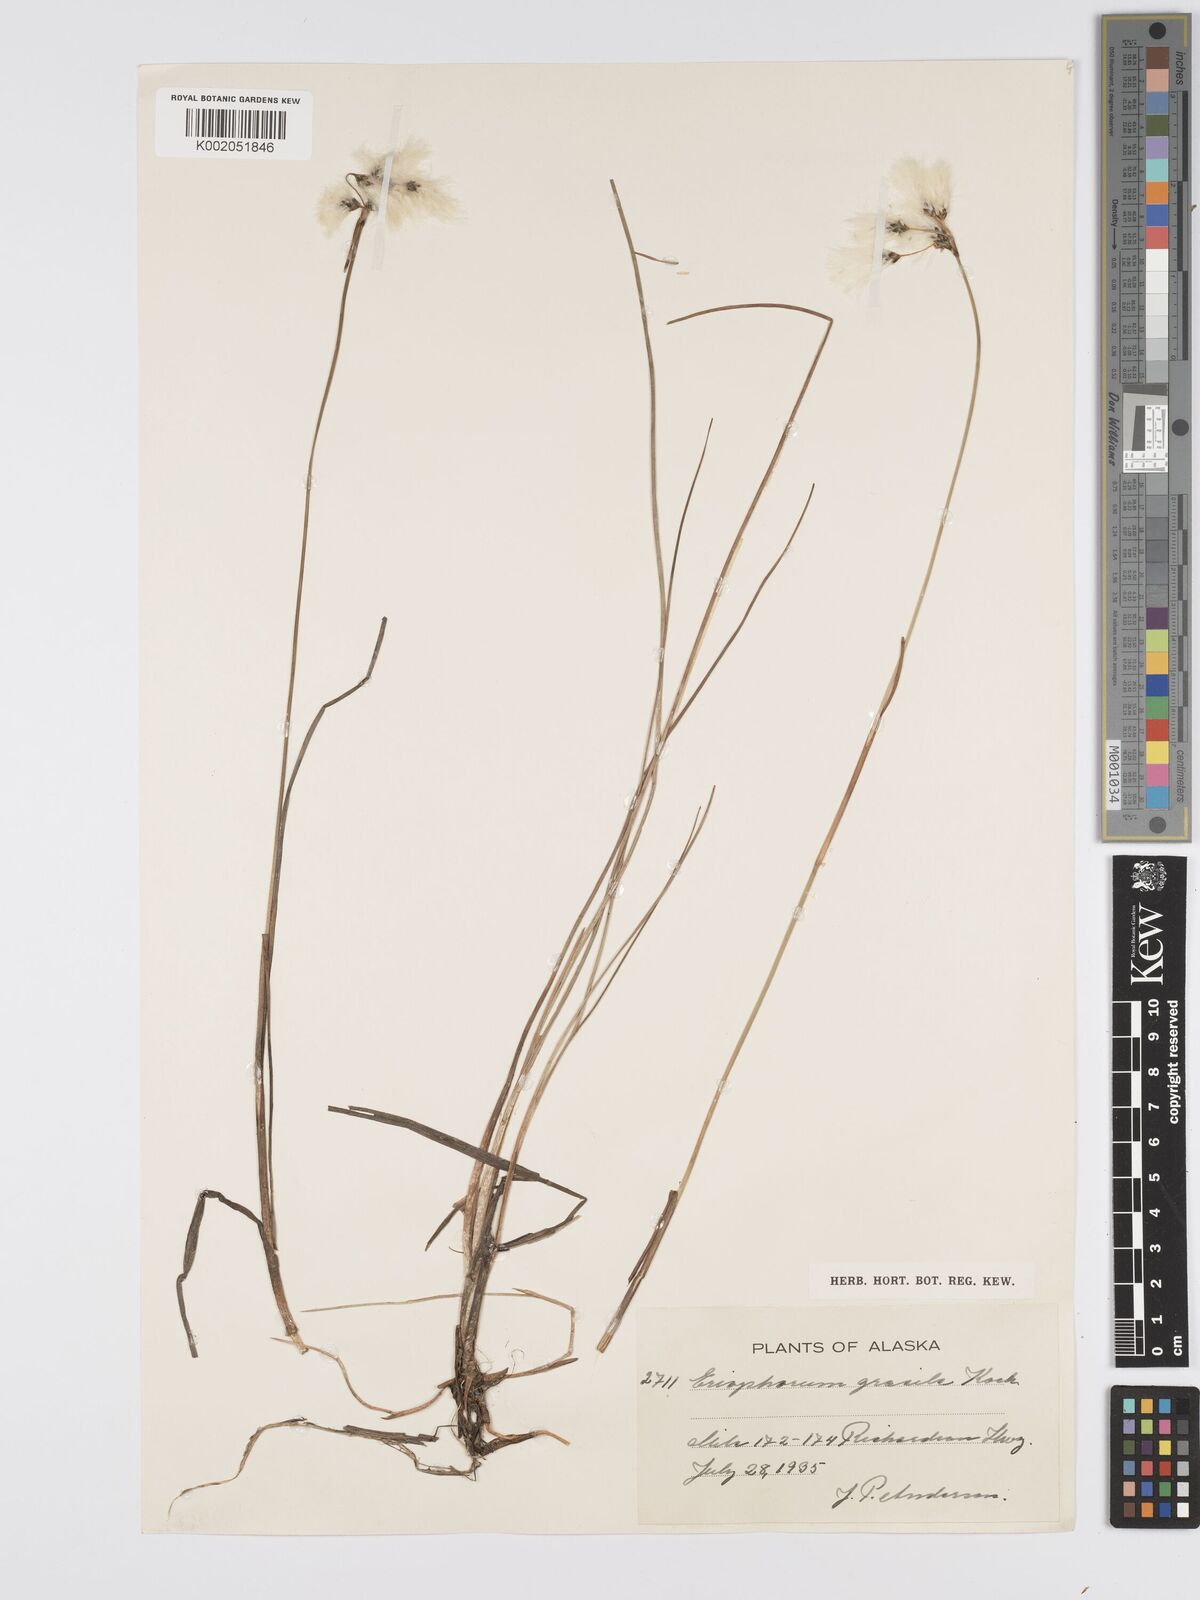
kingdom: Plantae
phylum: Tracheophyta
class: Liliopsida
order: Poales
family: Cyperaceae
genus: Eriophorum
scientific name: Eriophorum gracile
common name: Slender cottongrass
